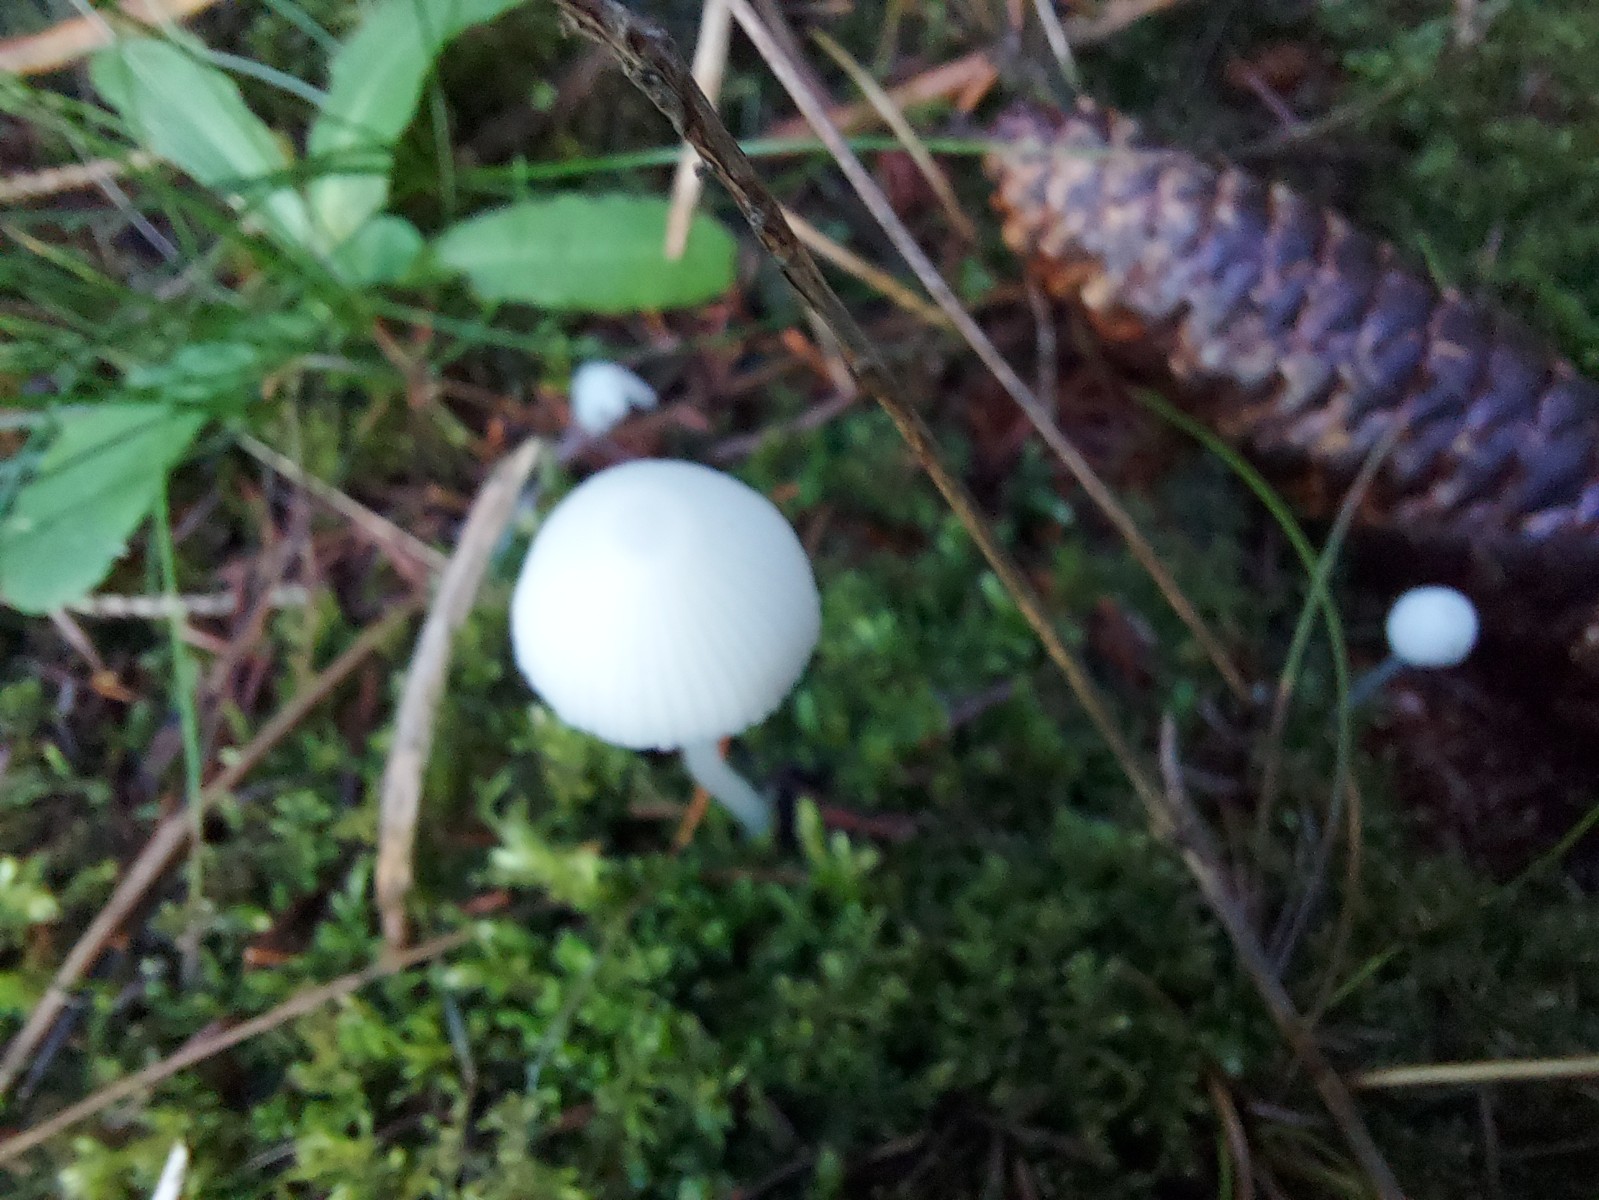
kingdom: Fungi
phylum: Basidiomycota
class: Agaricomycetes
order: Agaricales
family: Mycenaceae
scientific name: Mycenaceae
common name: huesvampfamilien
